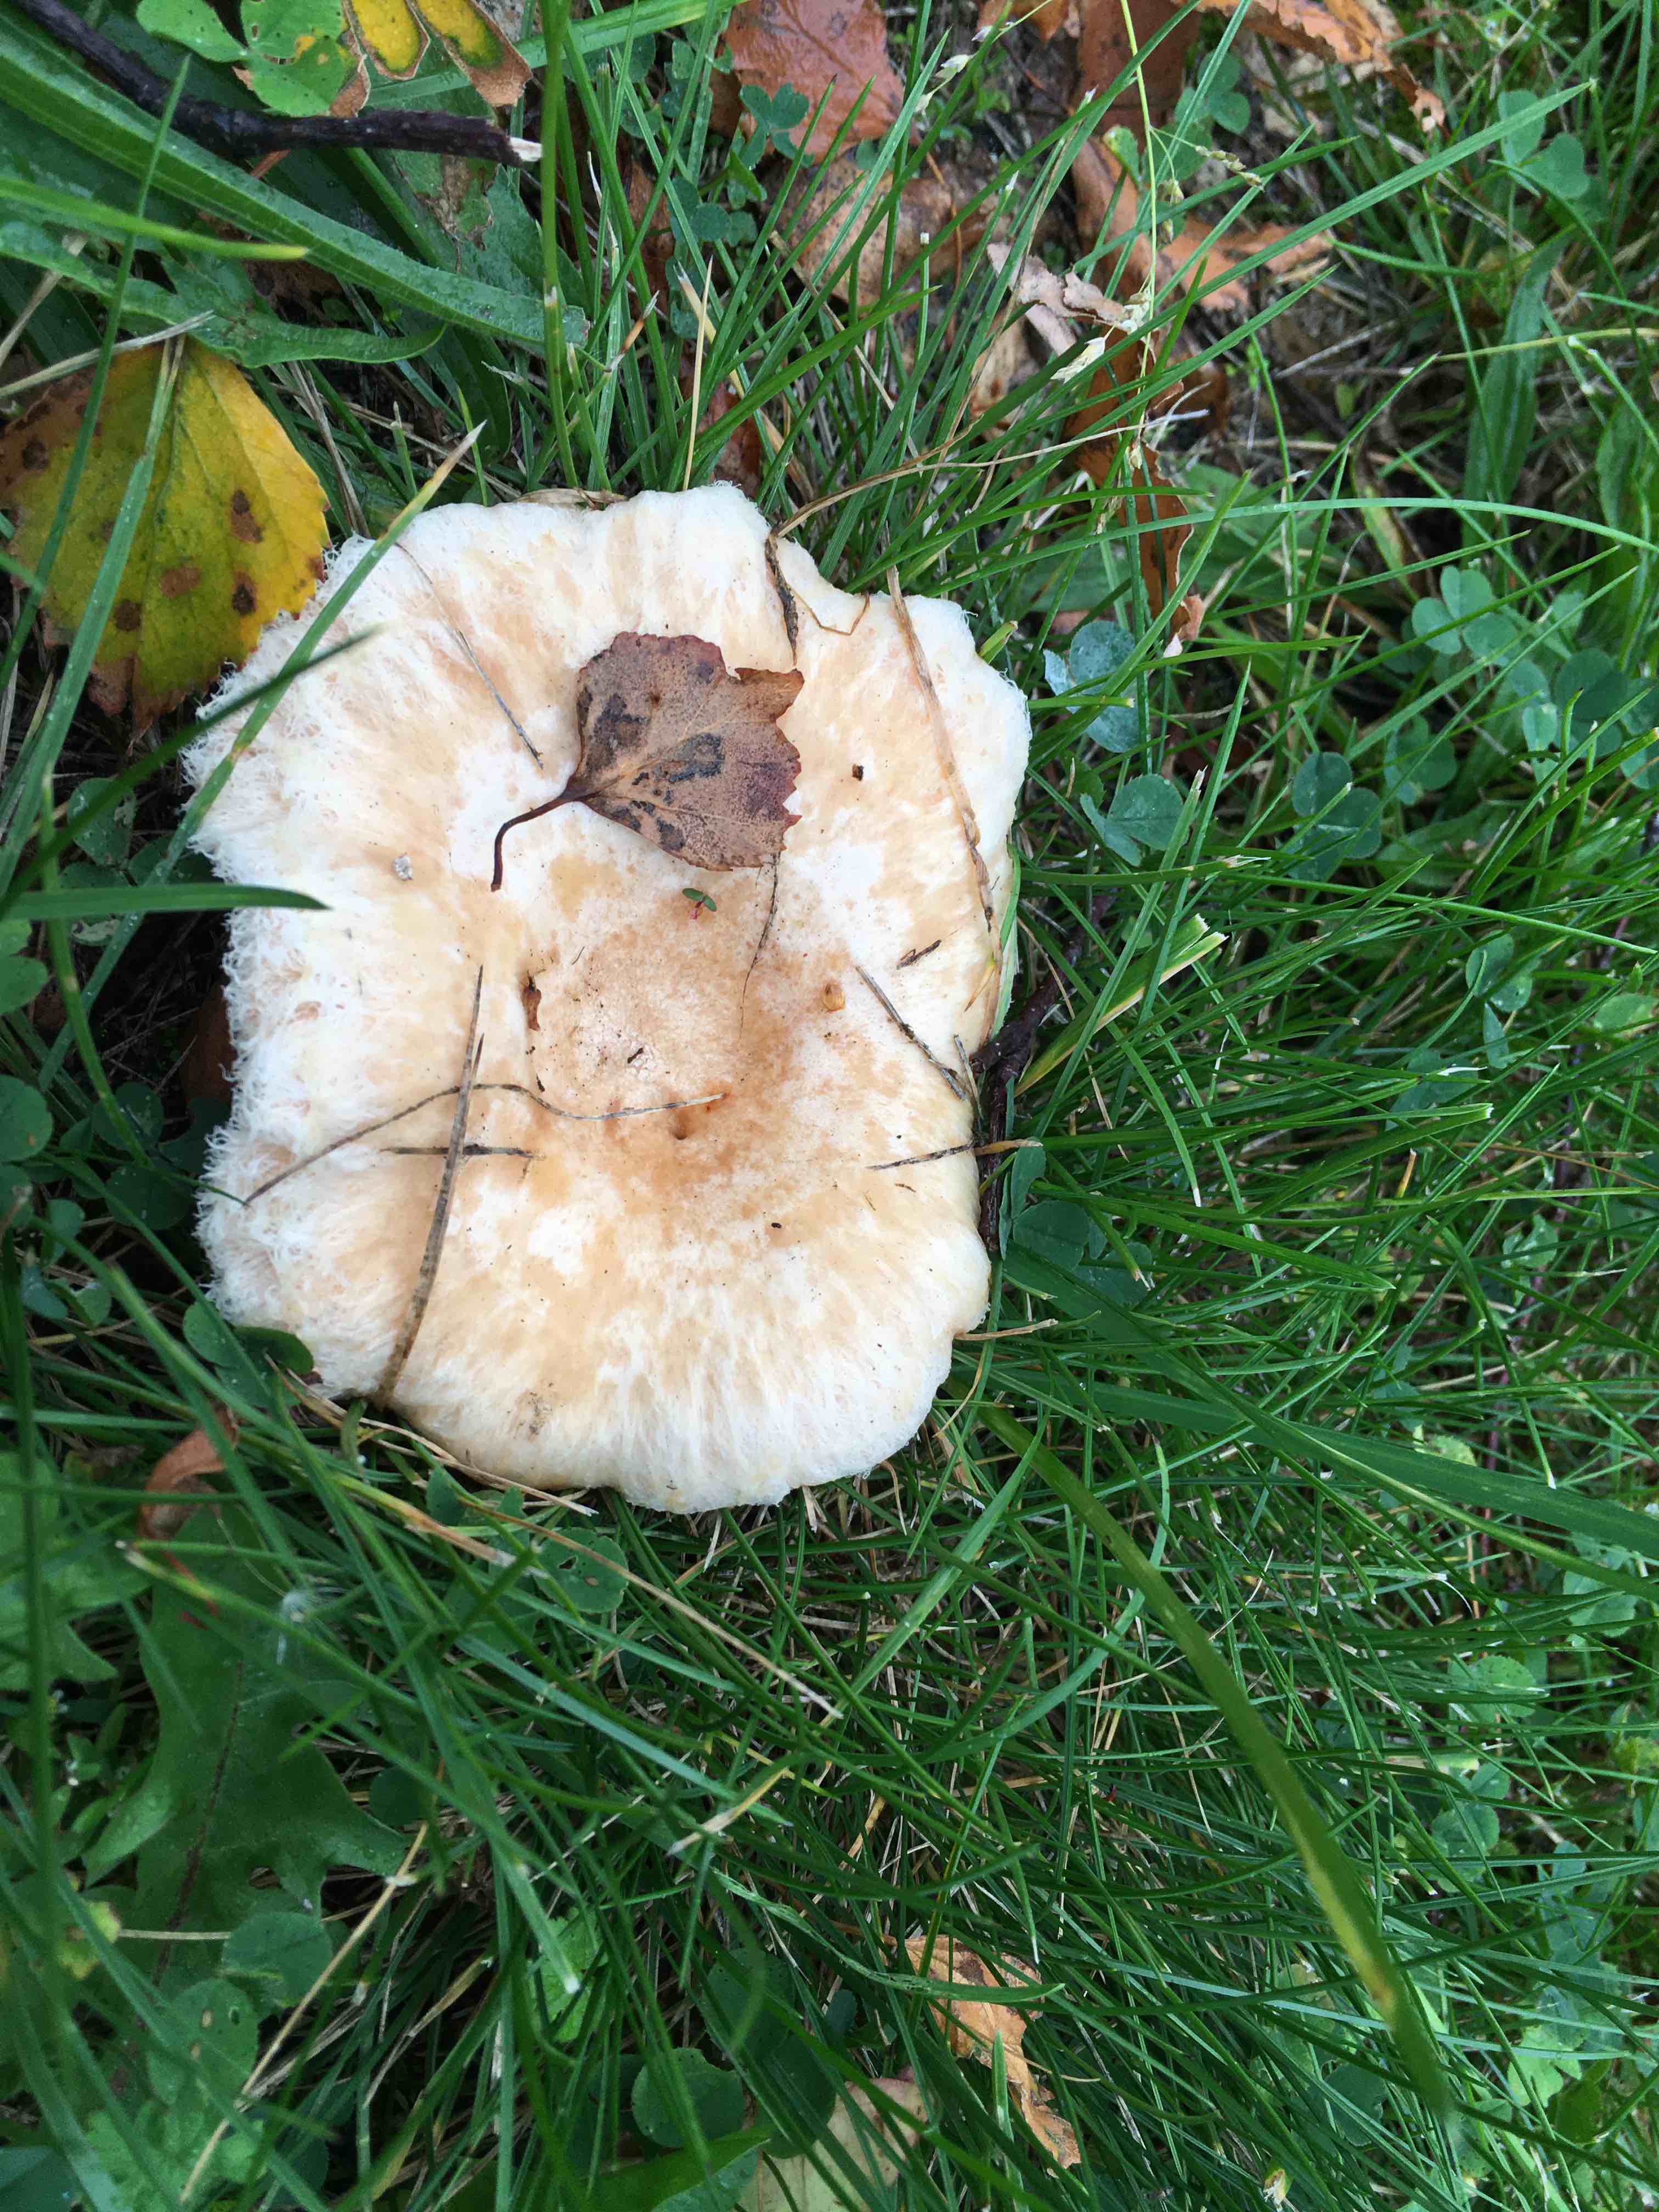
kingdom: Fungi
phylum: Basidiomycota
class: Agaricomycetes
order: Russulales
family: Russulaceae
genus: Lactarius
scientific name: Lactarius pubescens
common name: dunet mælkehat
